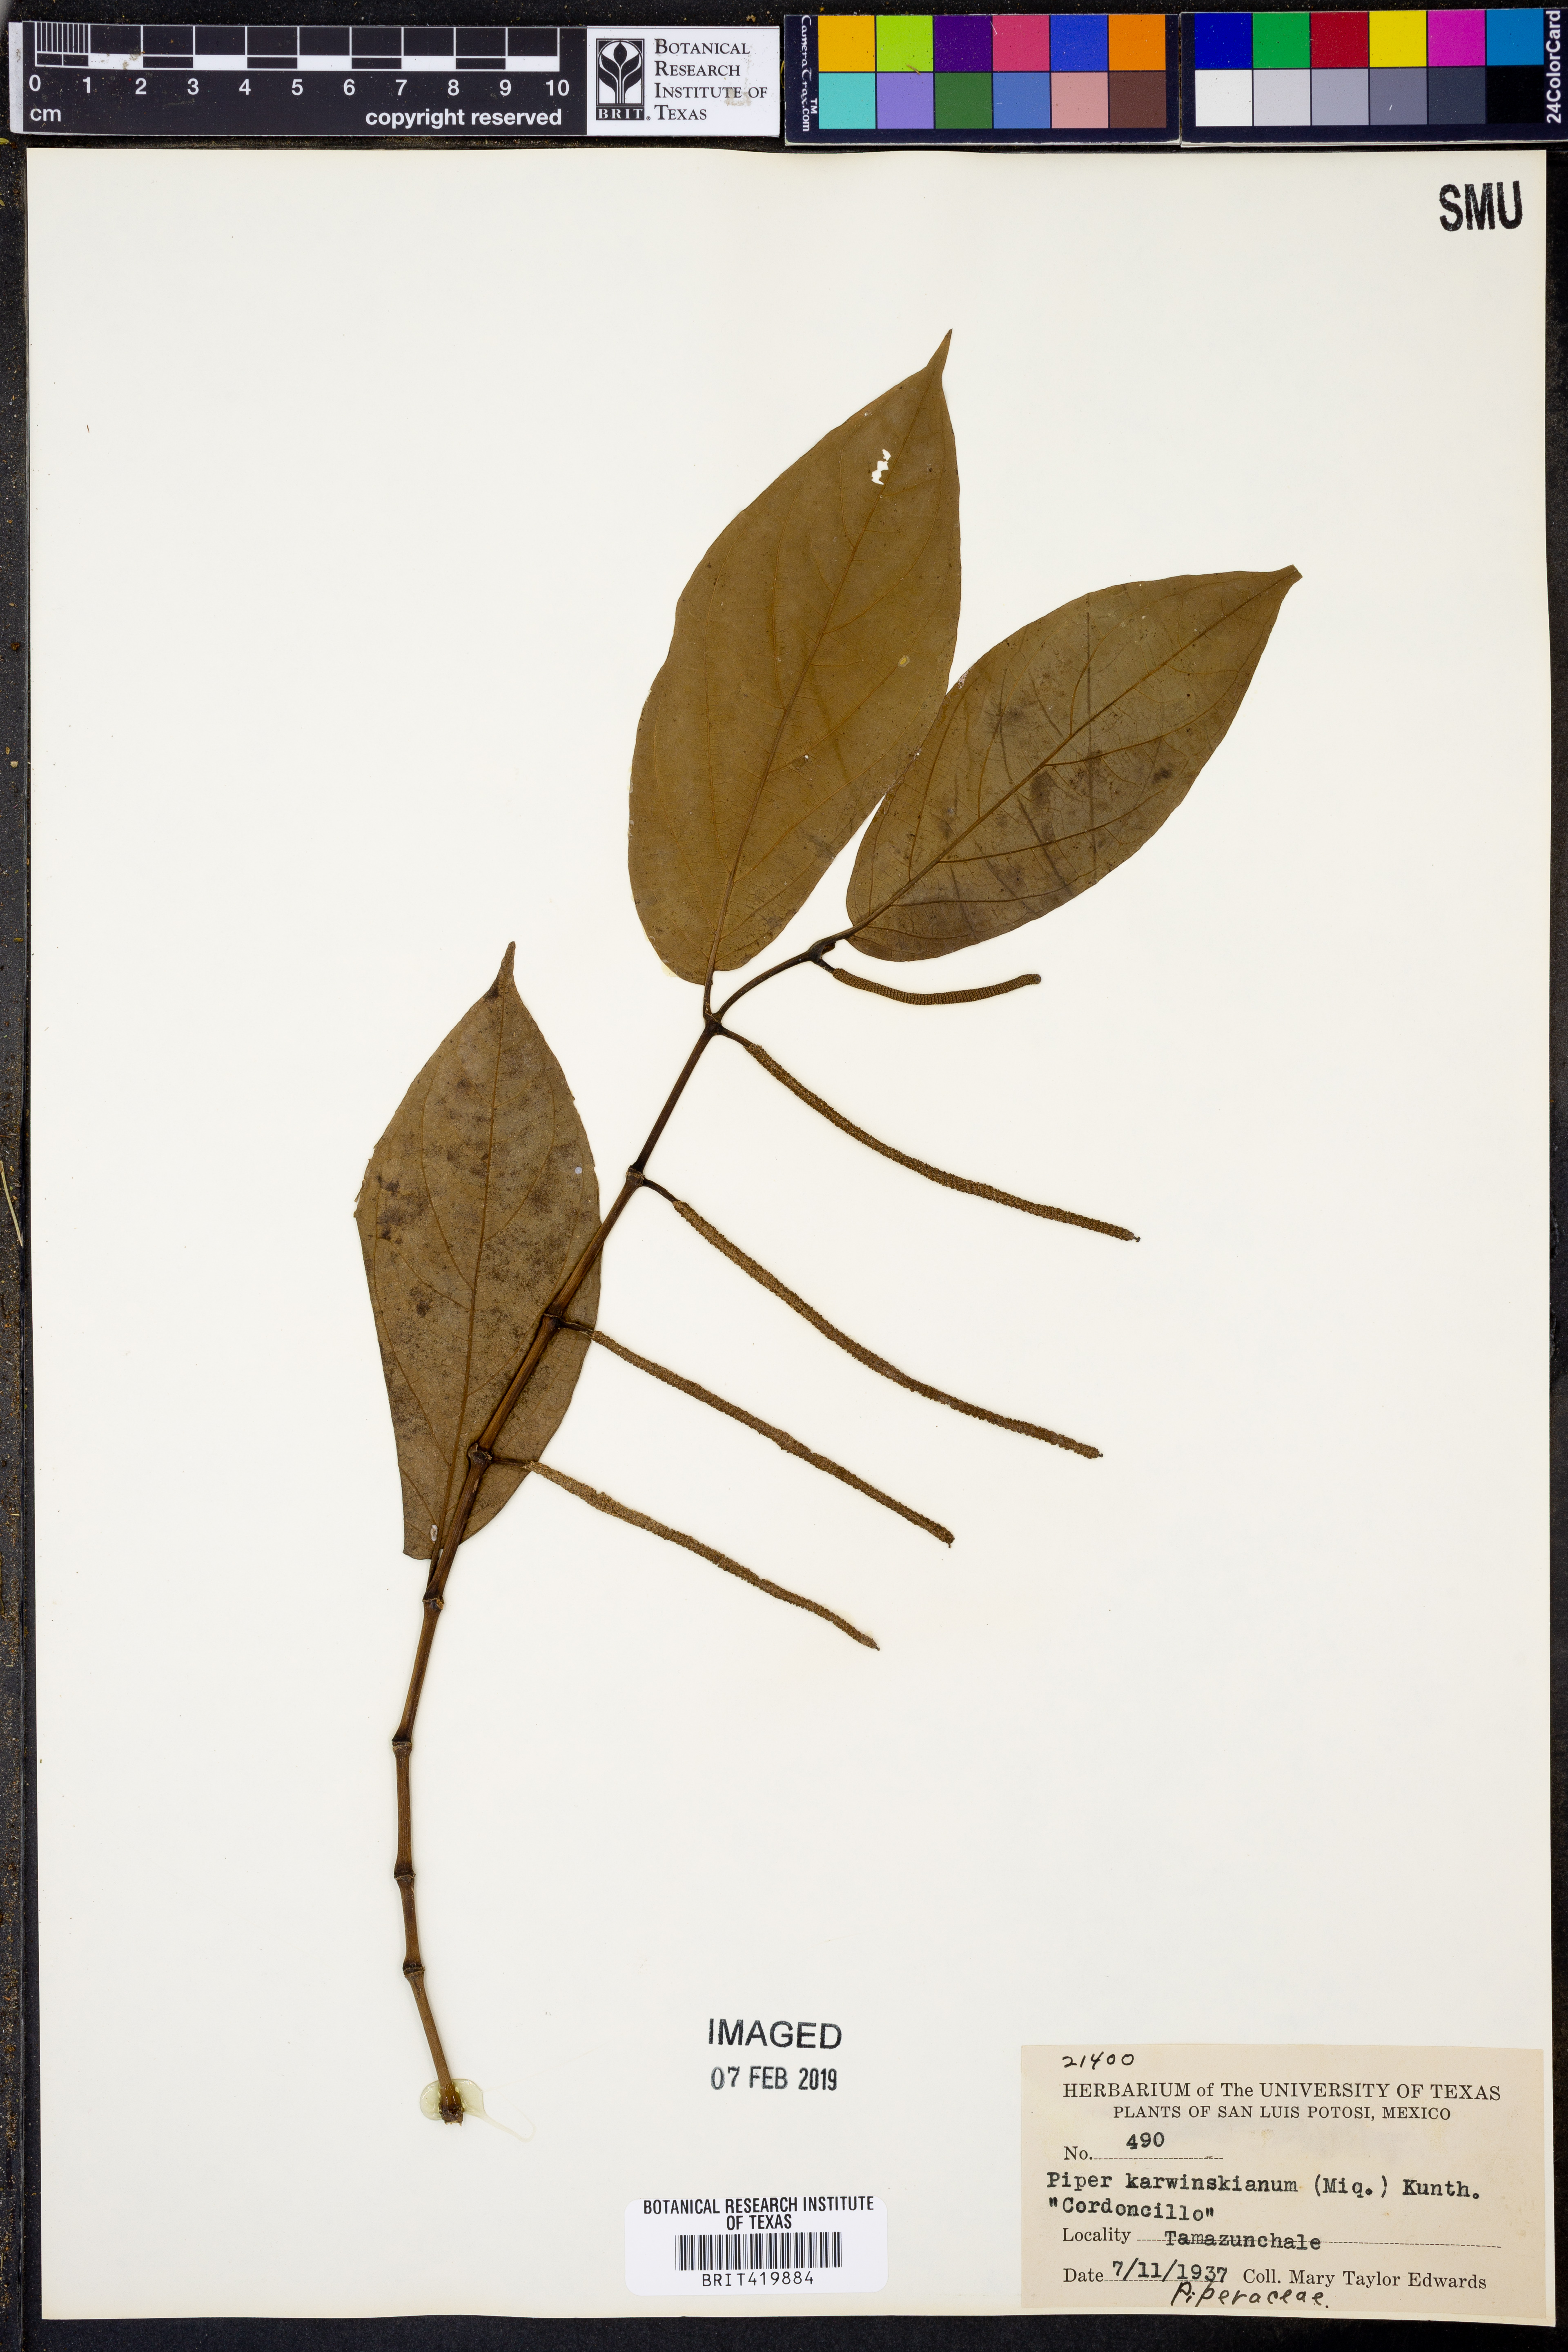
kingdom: Plantae
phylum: Tracheophyta
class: Magnoliopsida
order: Piperales
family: Piperaceae
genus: Piper
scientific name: Piper karwinskianum
